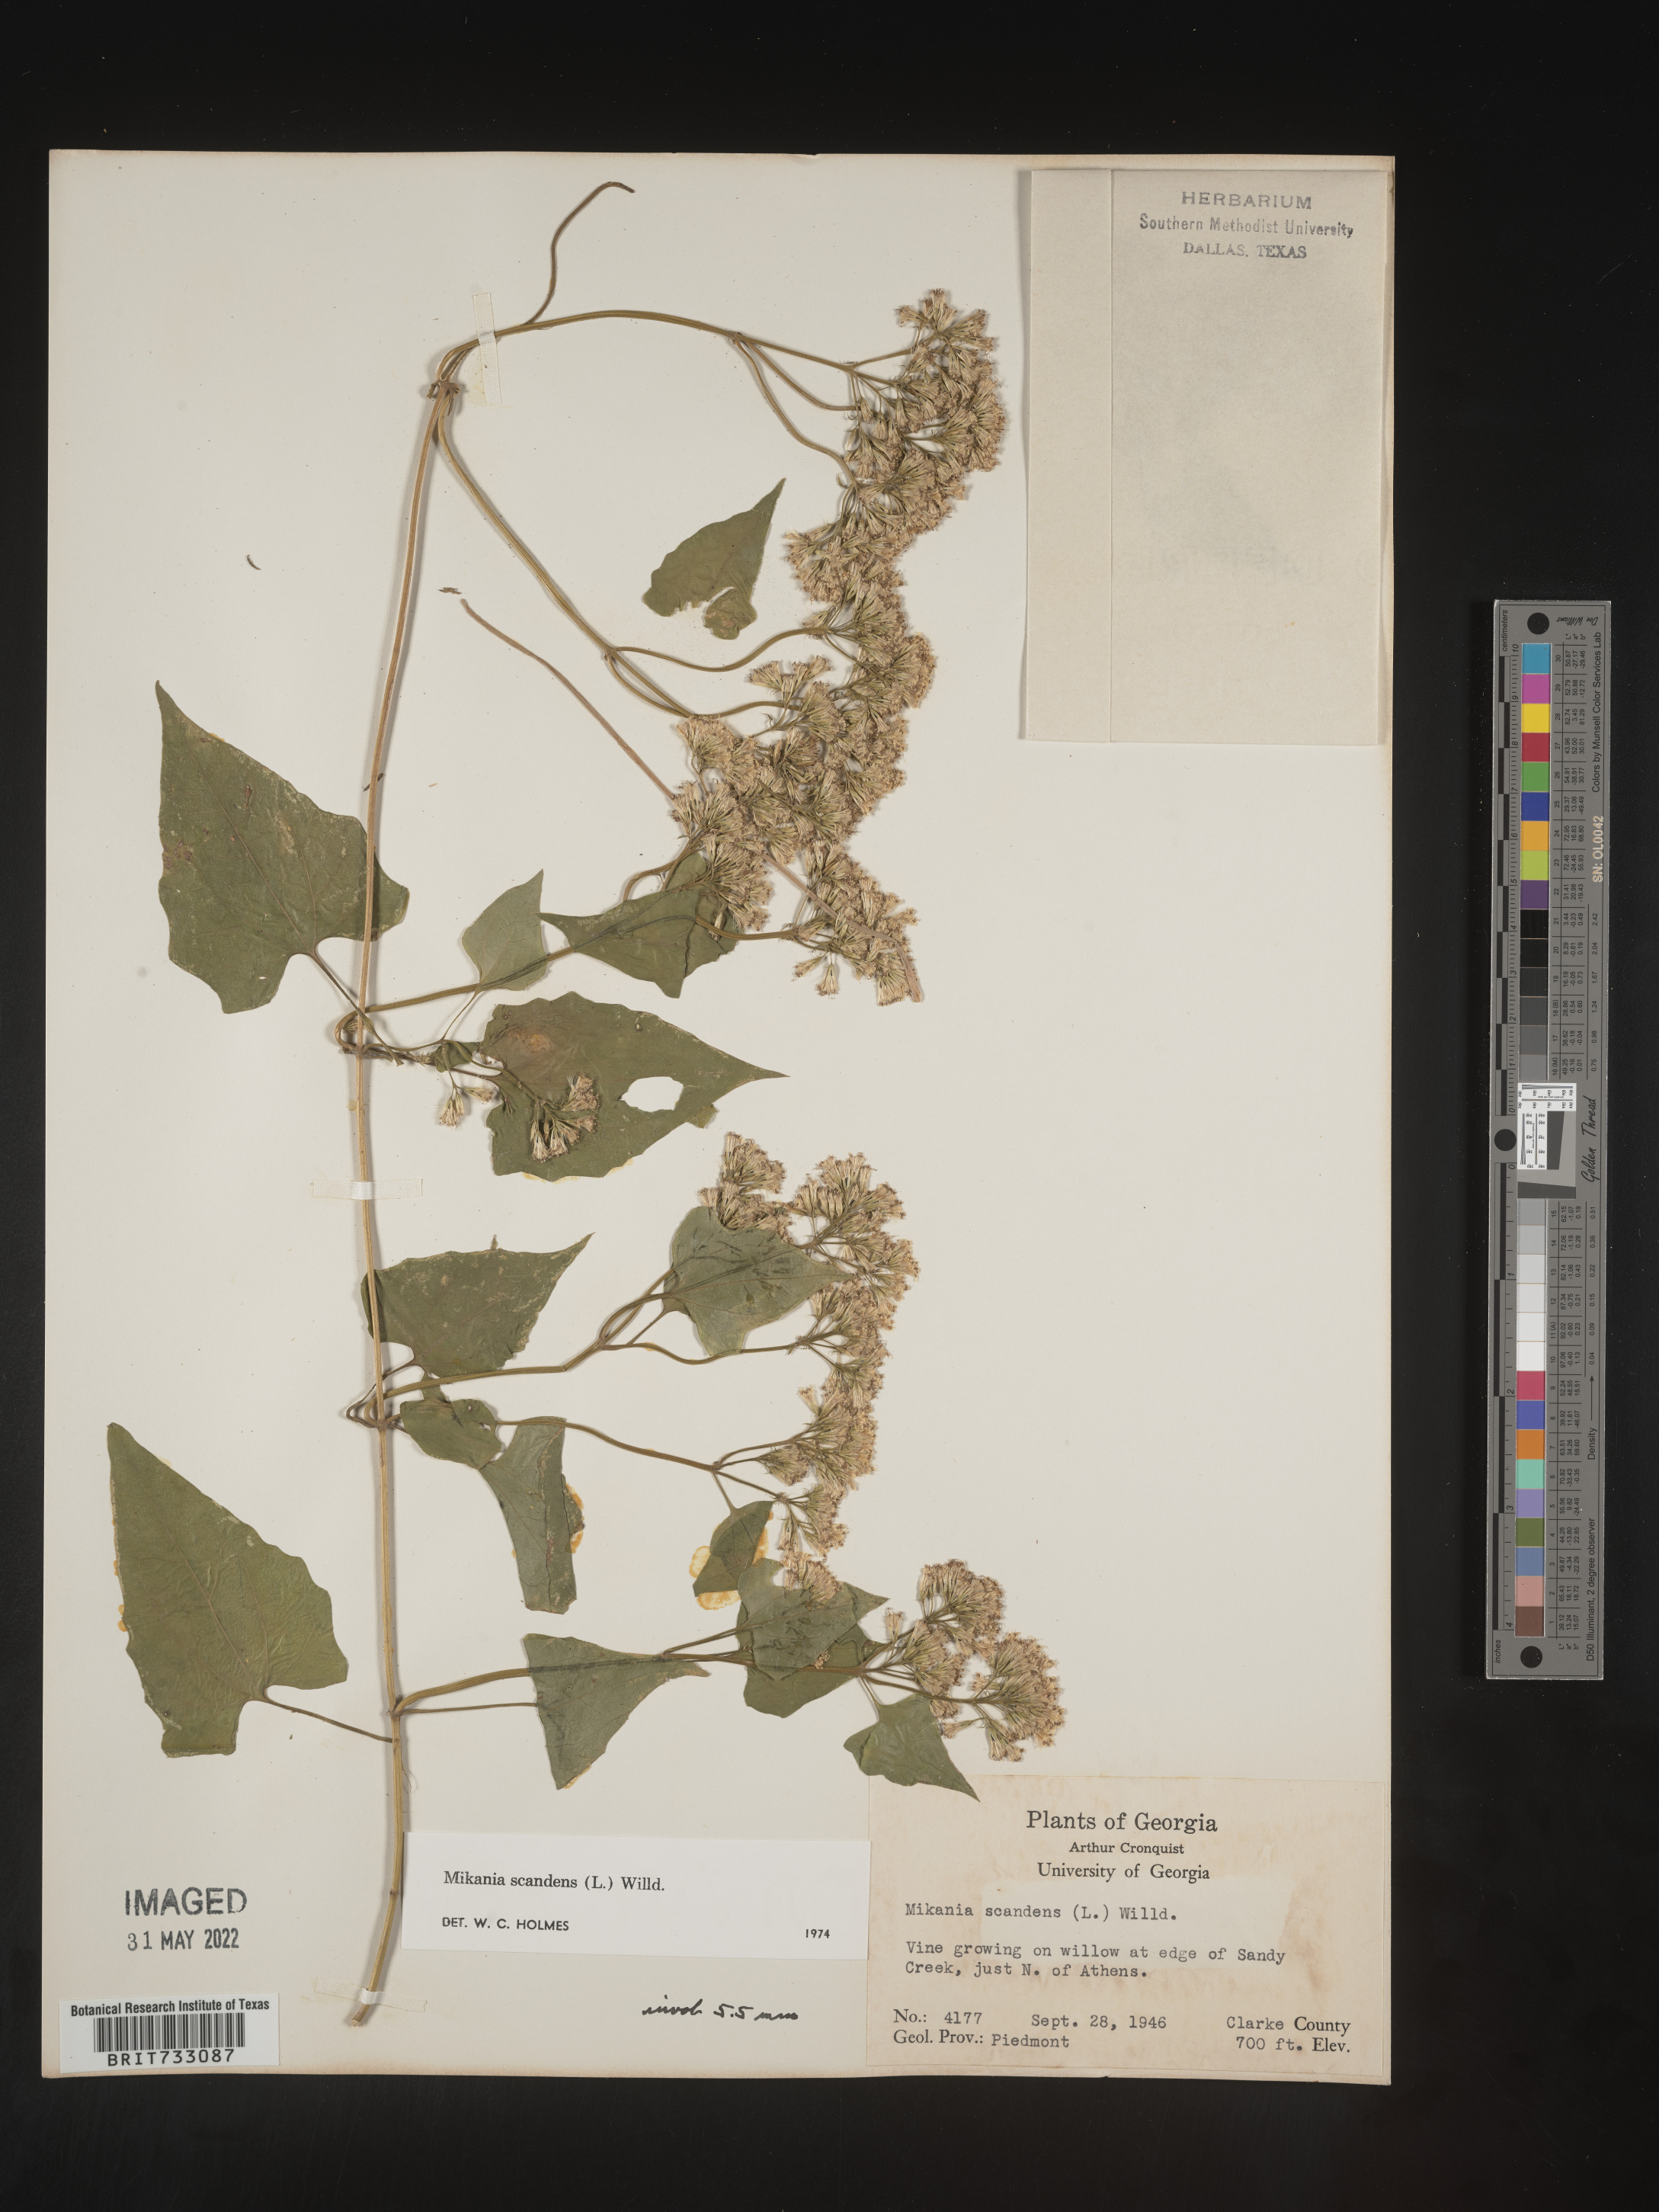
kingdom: Plantae
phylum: Tracheophyta
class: Magnoliopsida
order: Asterales
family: Asteraceae
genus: Mikania
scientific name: Mikania scandens
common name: Climbing hempvine
